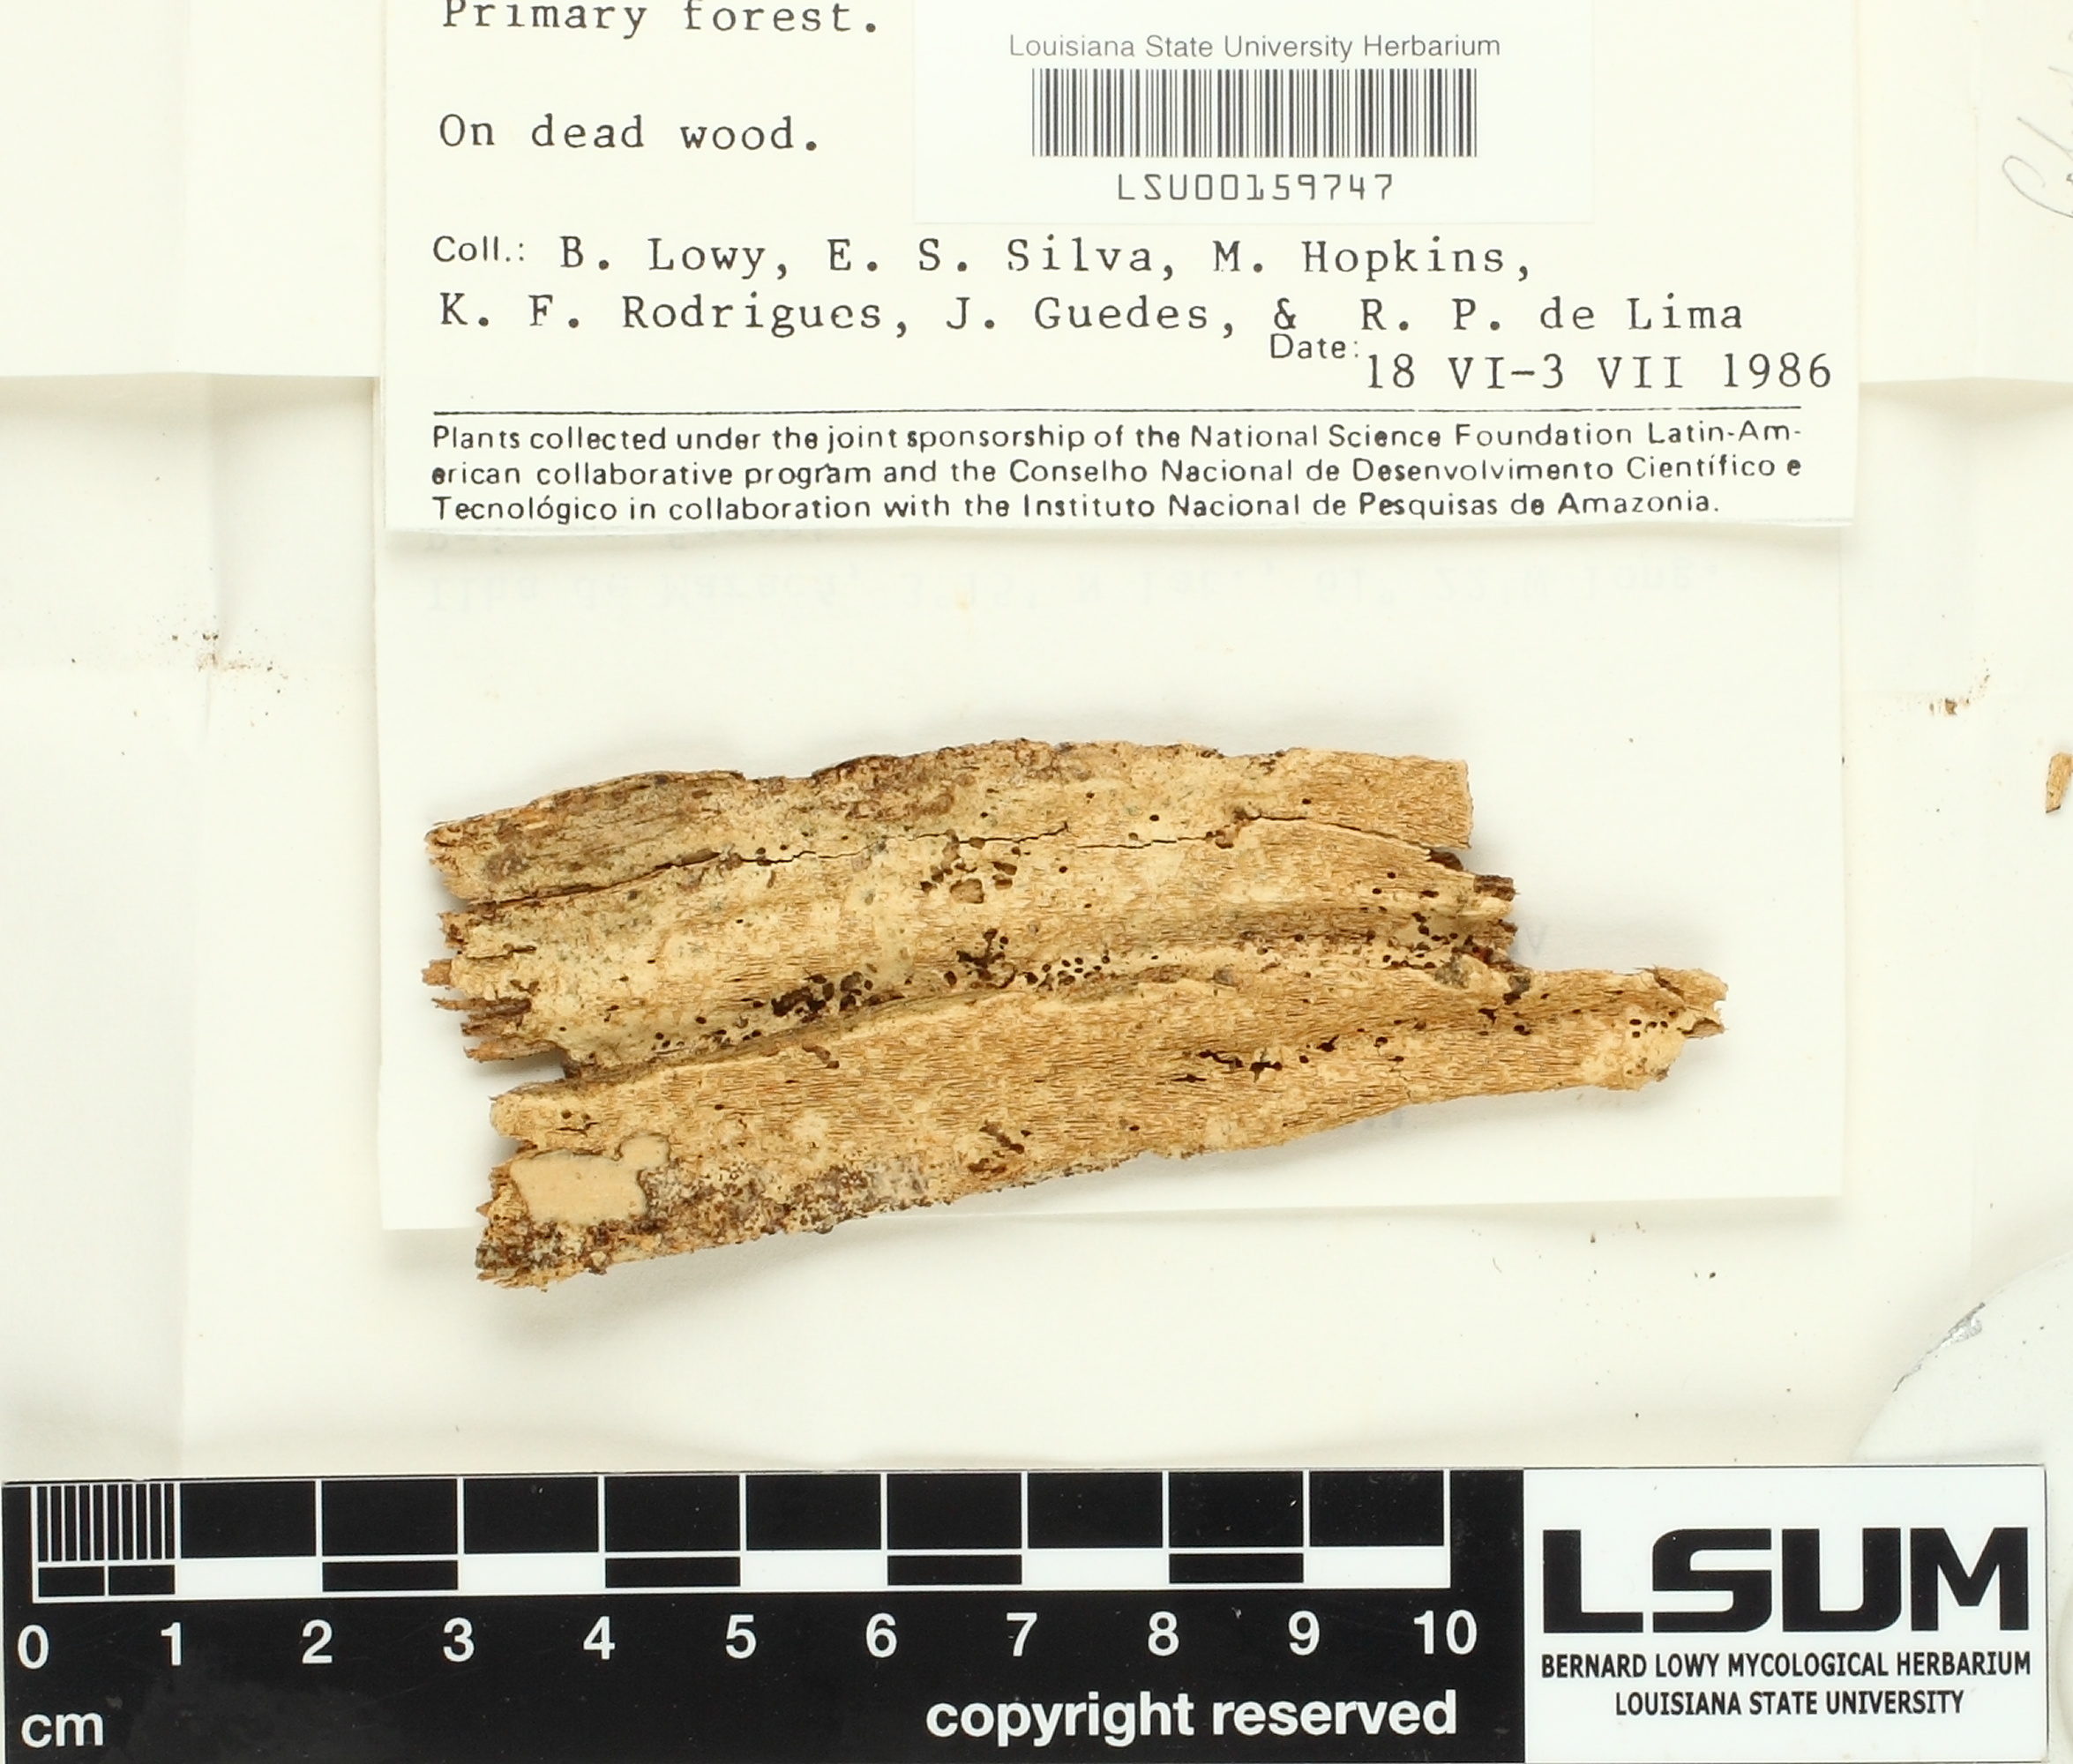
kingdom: Fungi
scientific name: Fungi
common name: Fungi
